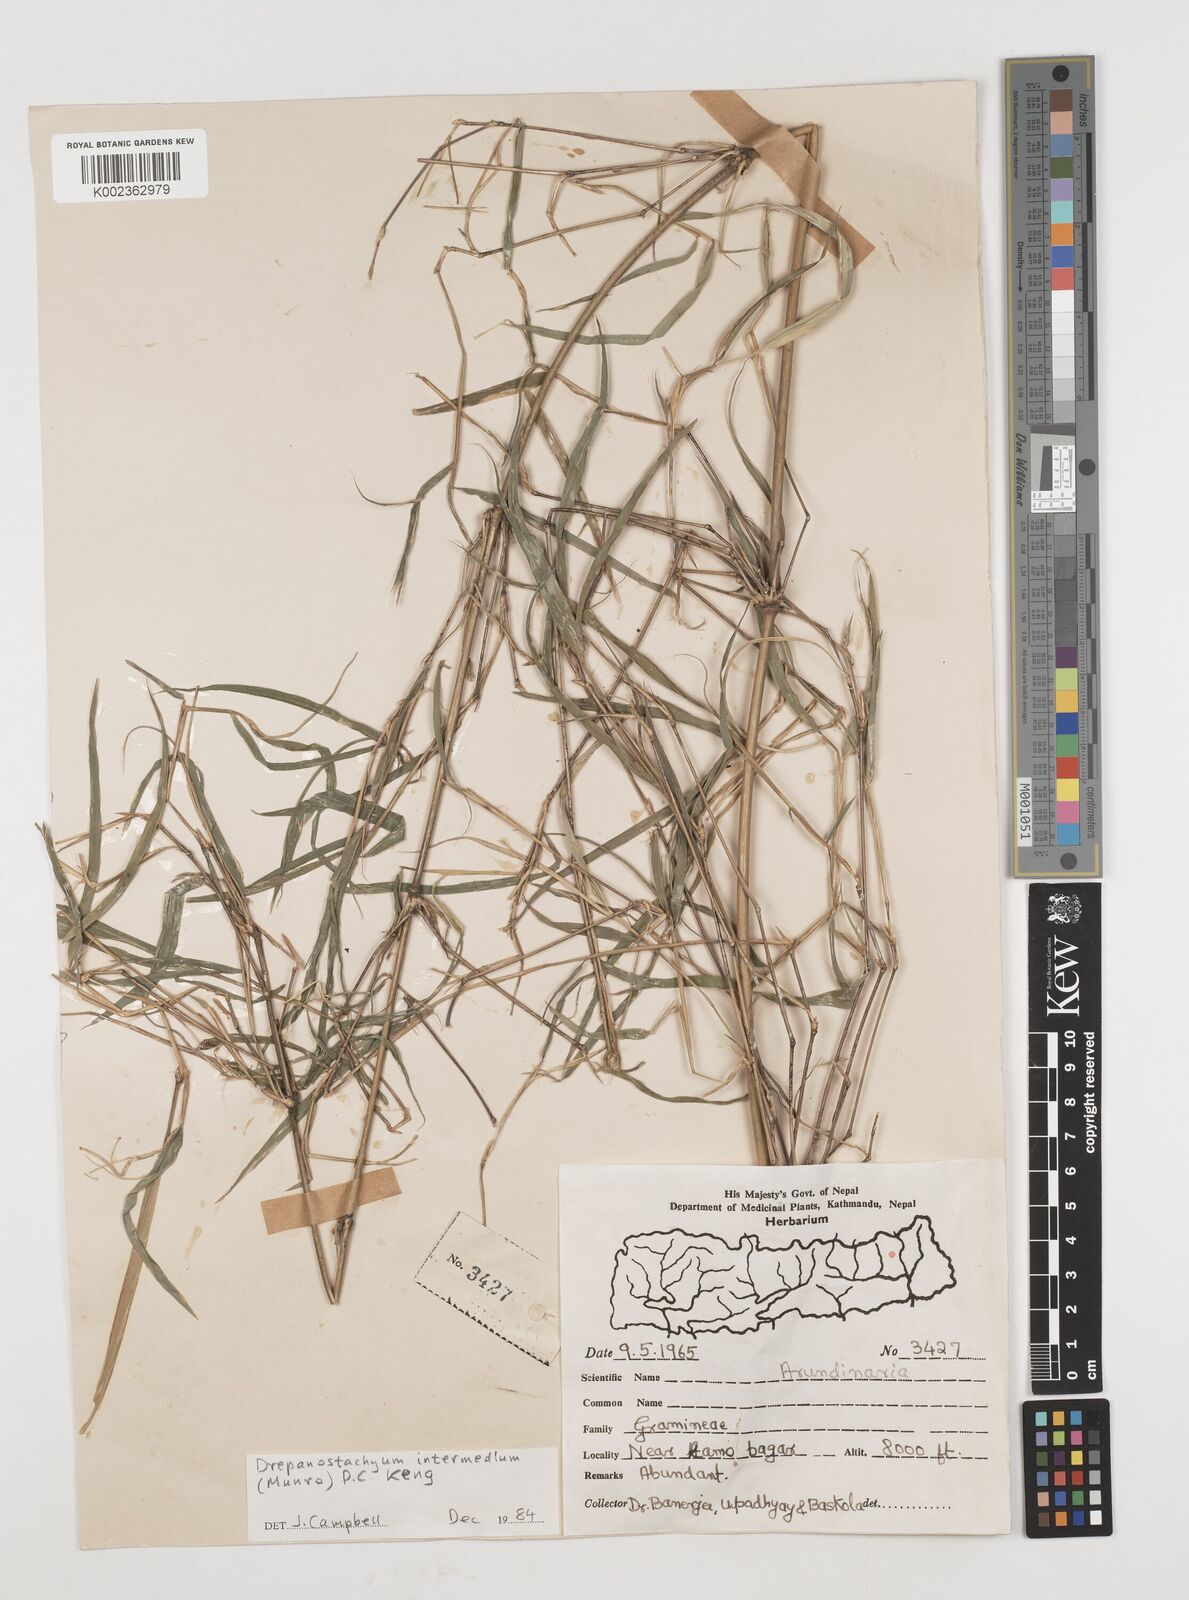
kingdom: Plantae
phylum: Tracheophyta
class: Liliopsida
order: Poales
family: Poaceae
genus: Drepanostachyum
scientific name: Drepanostachyum intermedium
